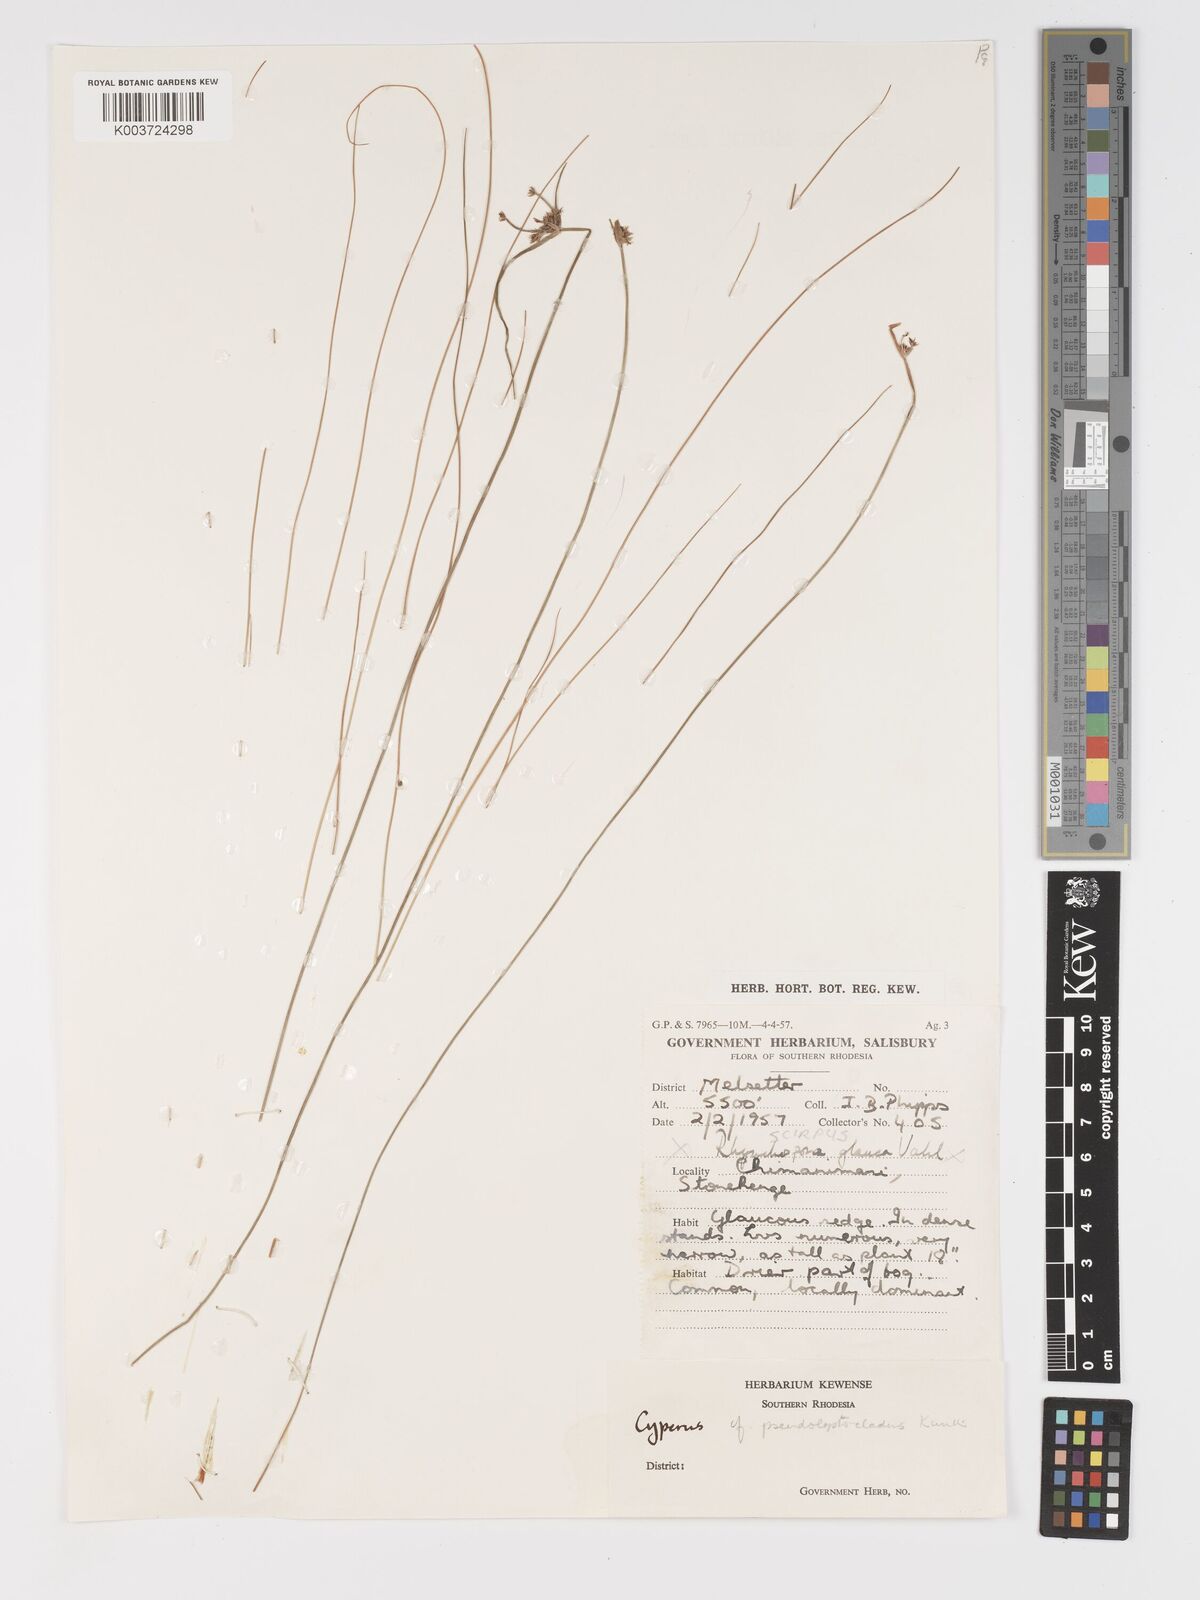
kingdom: Plantae
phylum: Tracheophyta
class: Liliopsida
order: Poales
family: Cyperaceae
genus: Cyperus
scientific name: Cyperus
